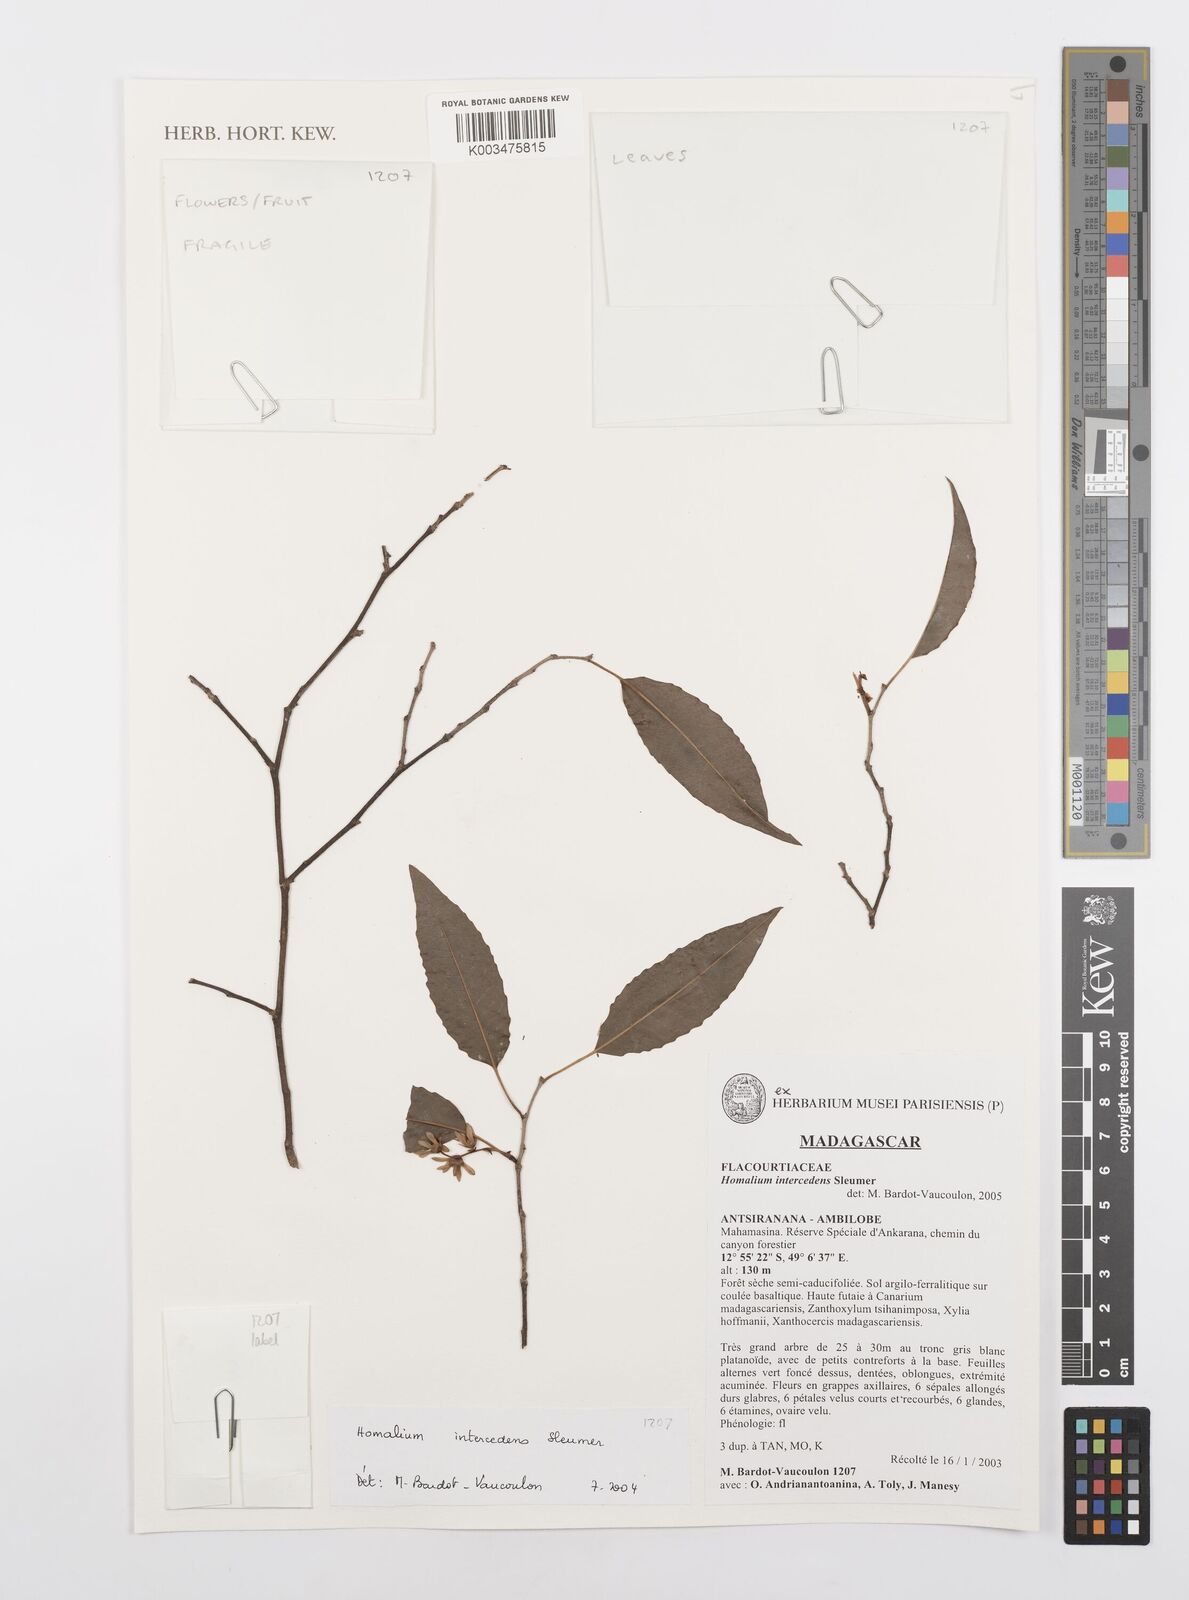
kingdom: Plantae
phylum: Tracheophyta
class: Magnoliopsida
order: Malpighiales
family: Salicaceae
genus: Homalium
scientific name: Homalium intercedens
